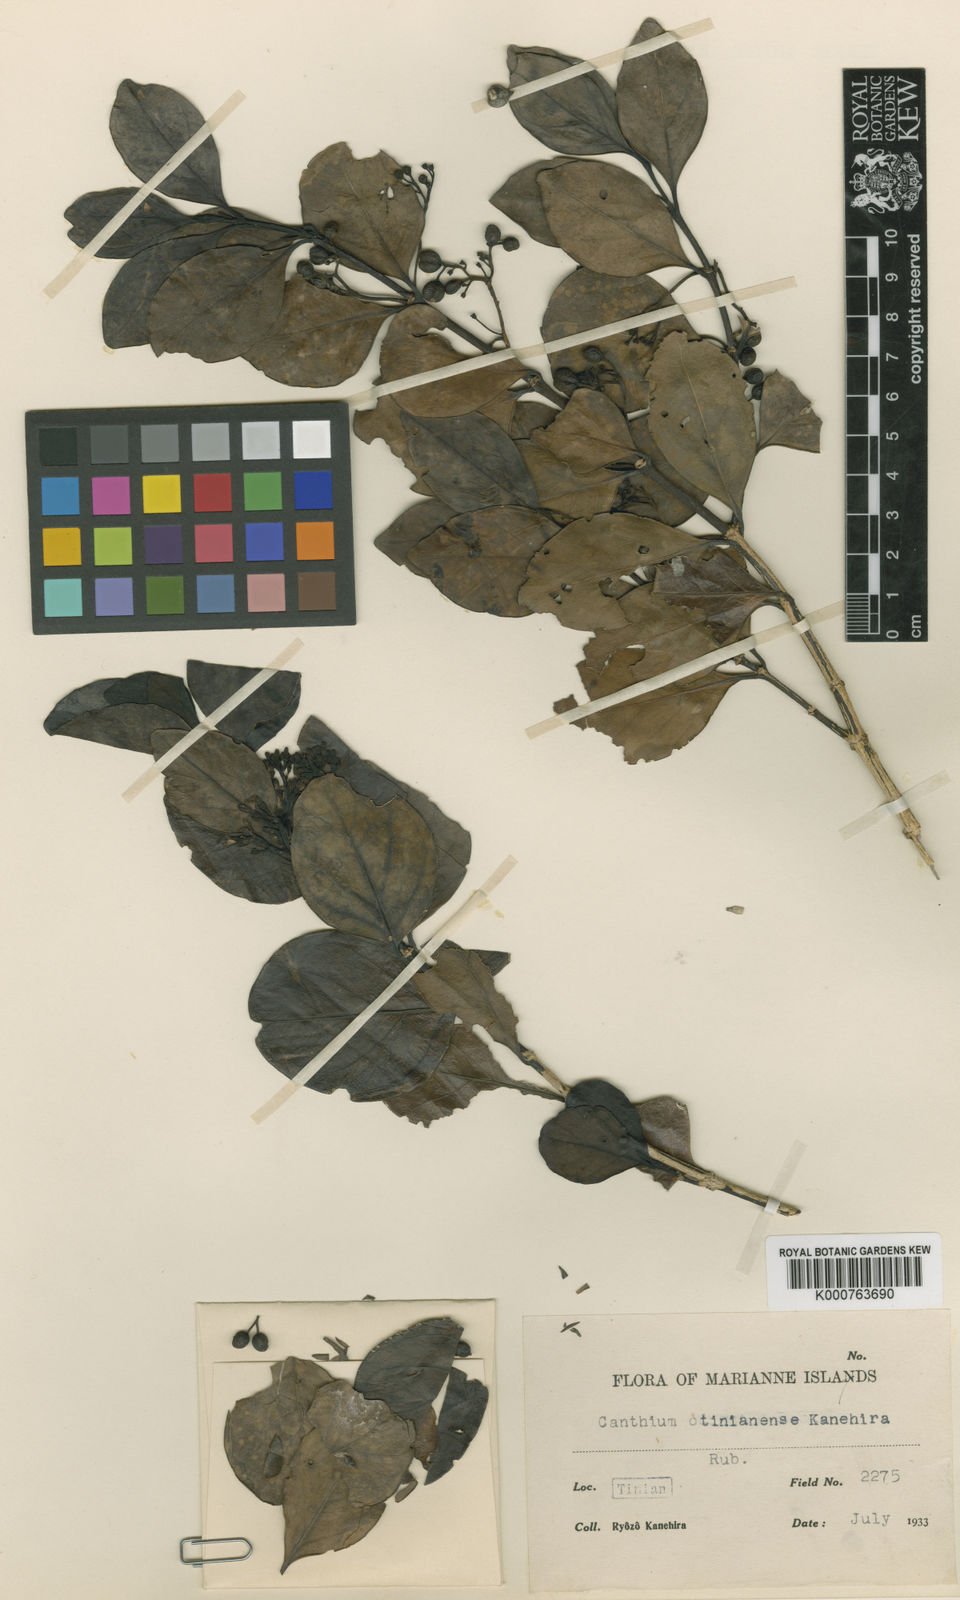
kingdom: Plantae
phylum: Tracheophyta
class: Magnoliopsida
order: Gentianales
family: Rubiaceae
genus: Psydrax
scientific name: Psydrax odoratus
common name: Alahe'e
